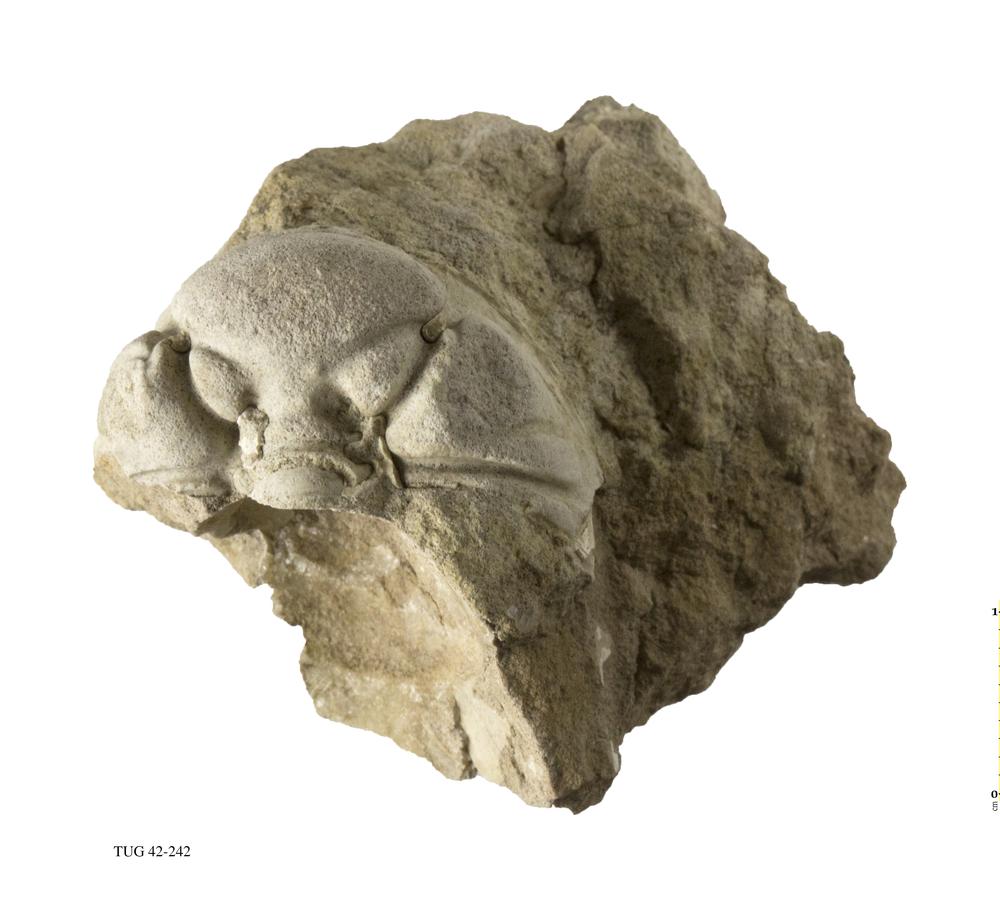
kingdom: Animalia
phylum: Arthropoda
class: Trilobita
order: Phacopida
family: Phacopidae
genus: Phacops
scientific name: Phacops
